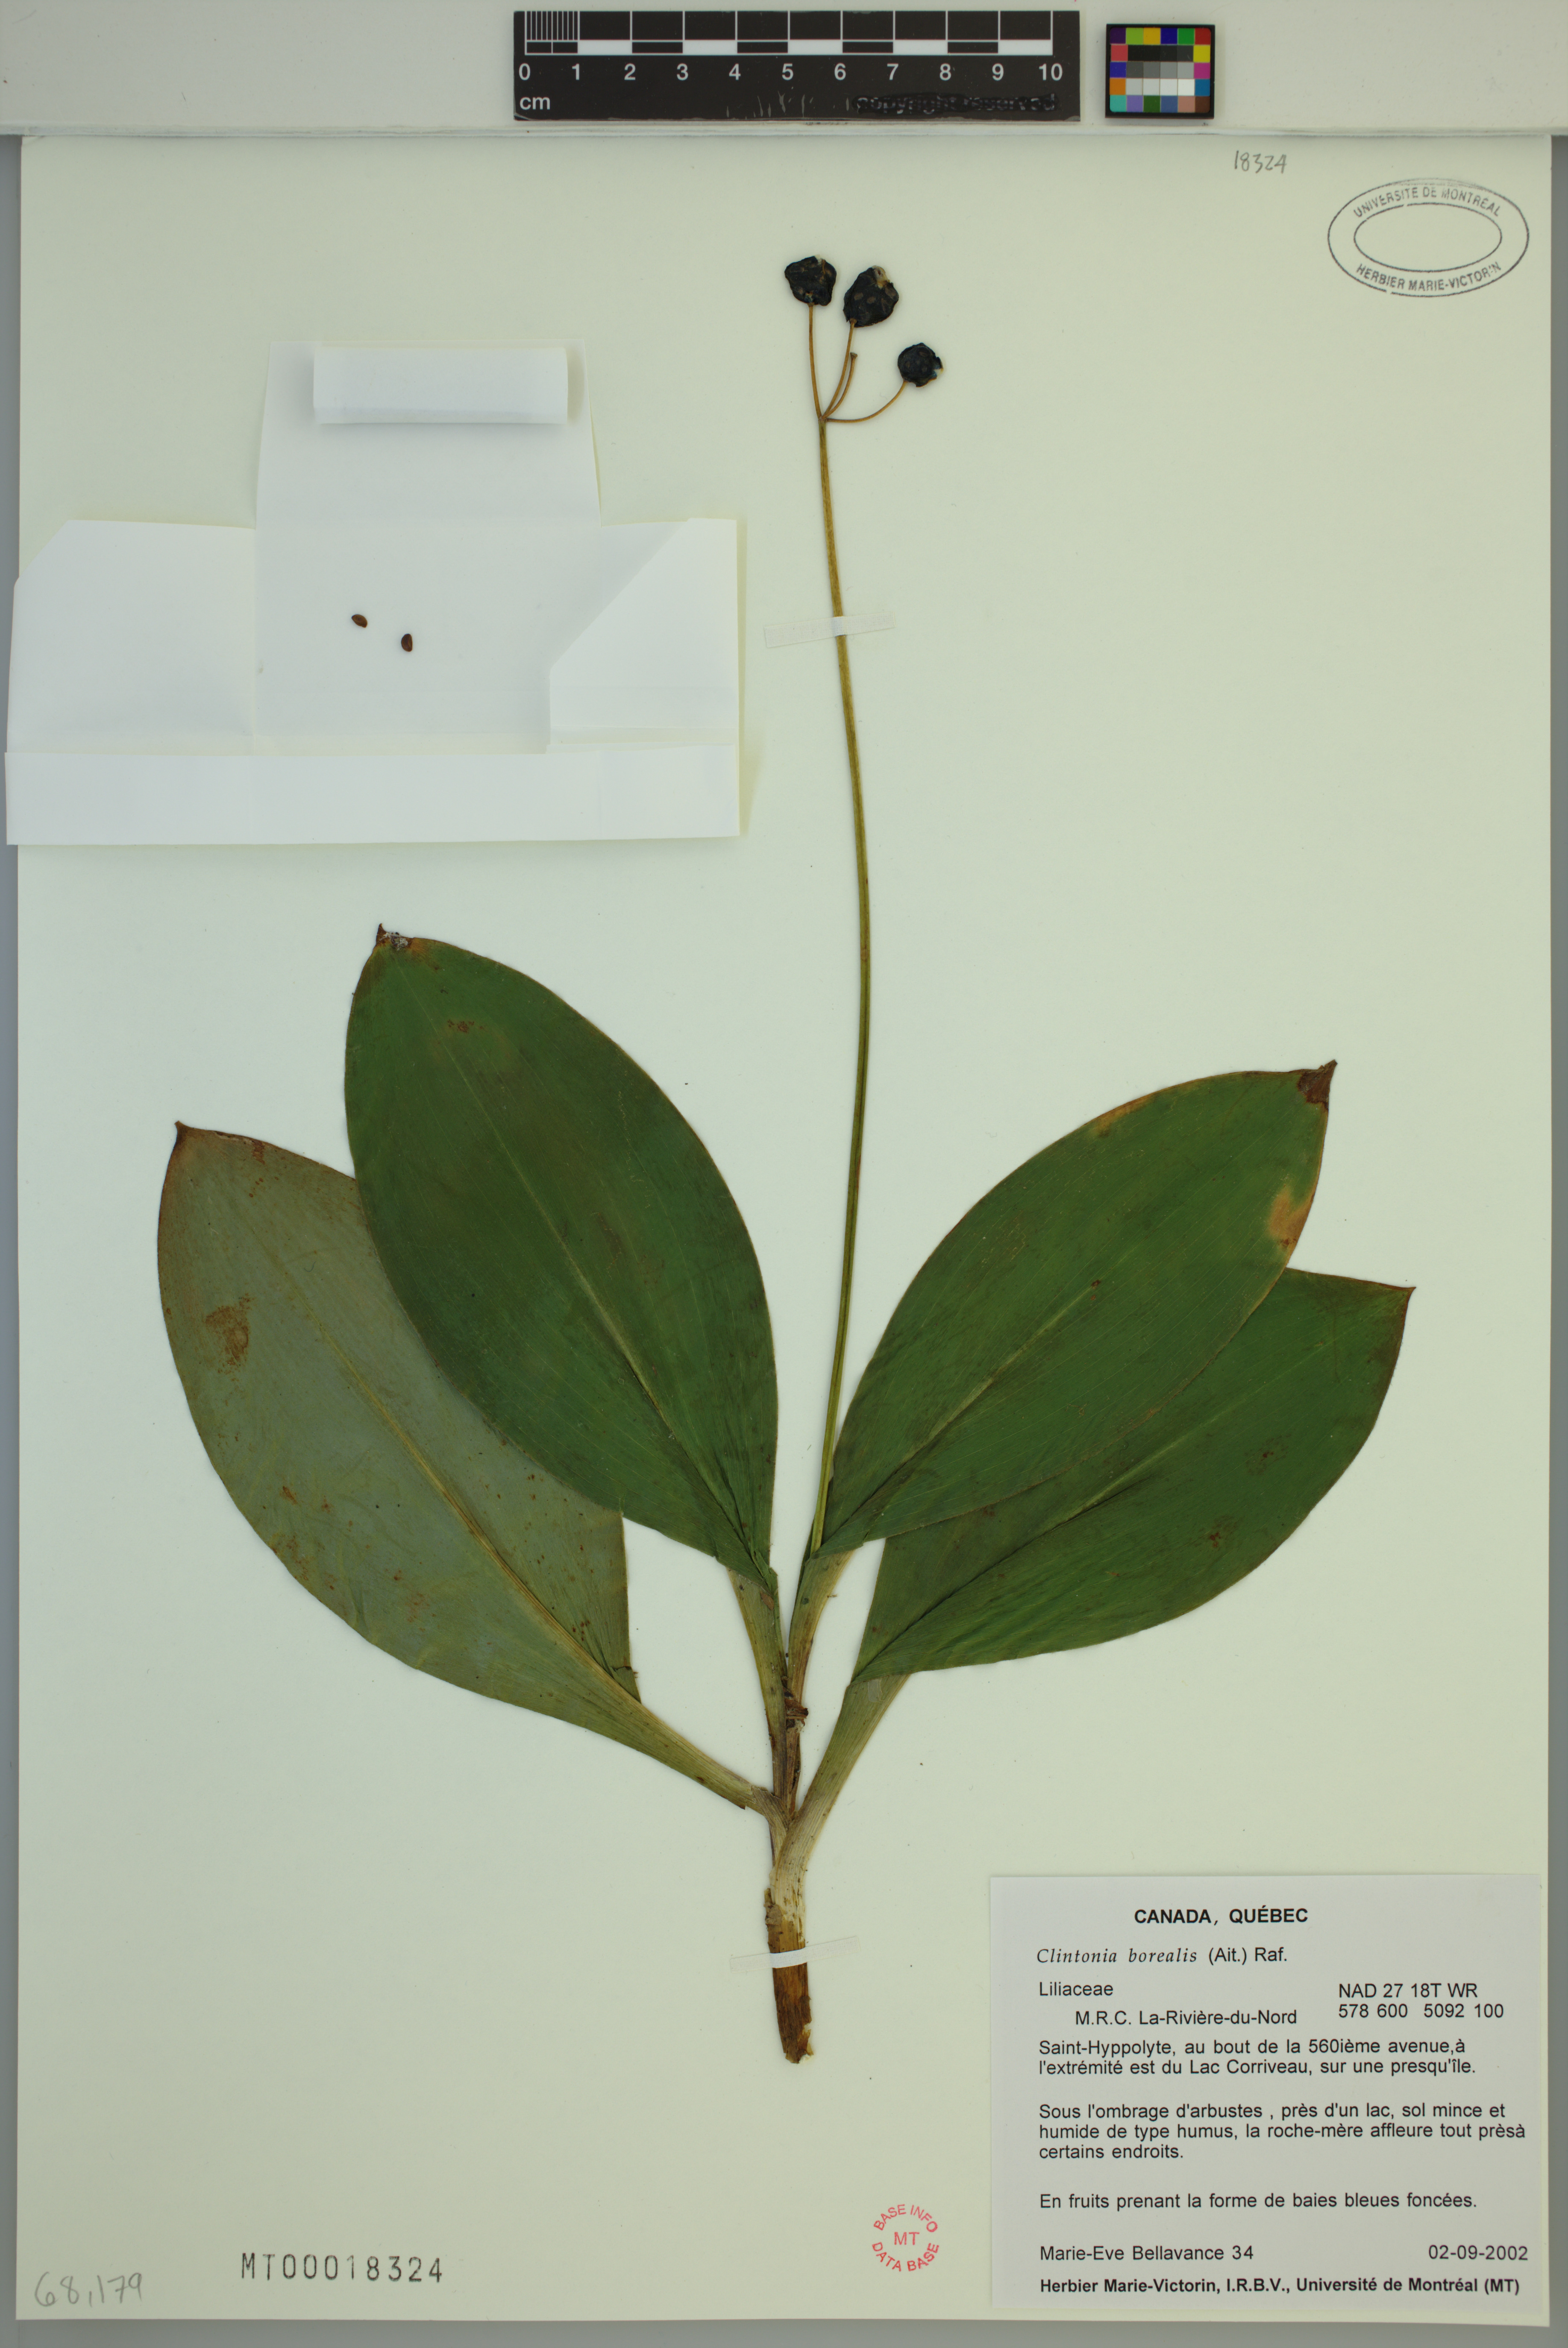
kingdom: Plantae
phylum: Tracheophyta
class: Liliopsida
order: Liliales
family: Liliaceae
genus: Clintonia
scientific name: Clintonia borealis
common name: Yellow clintonia
